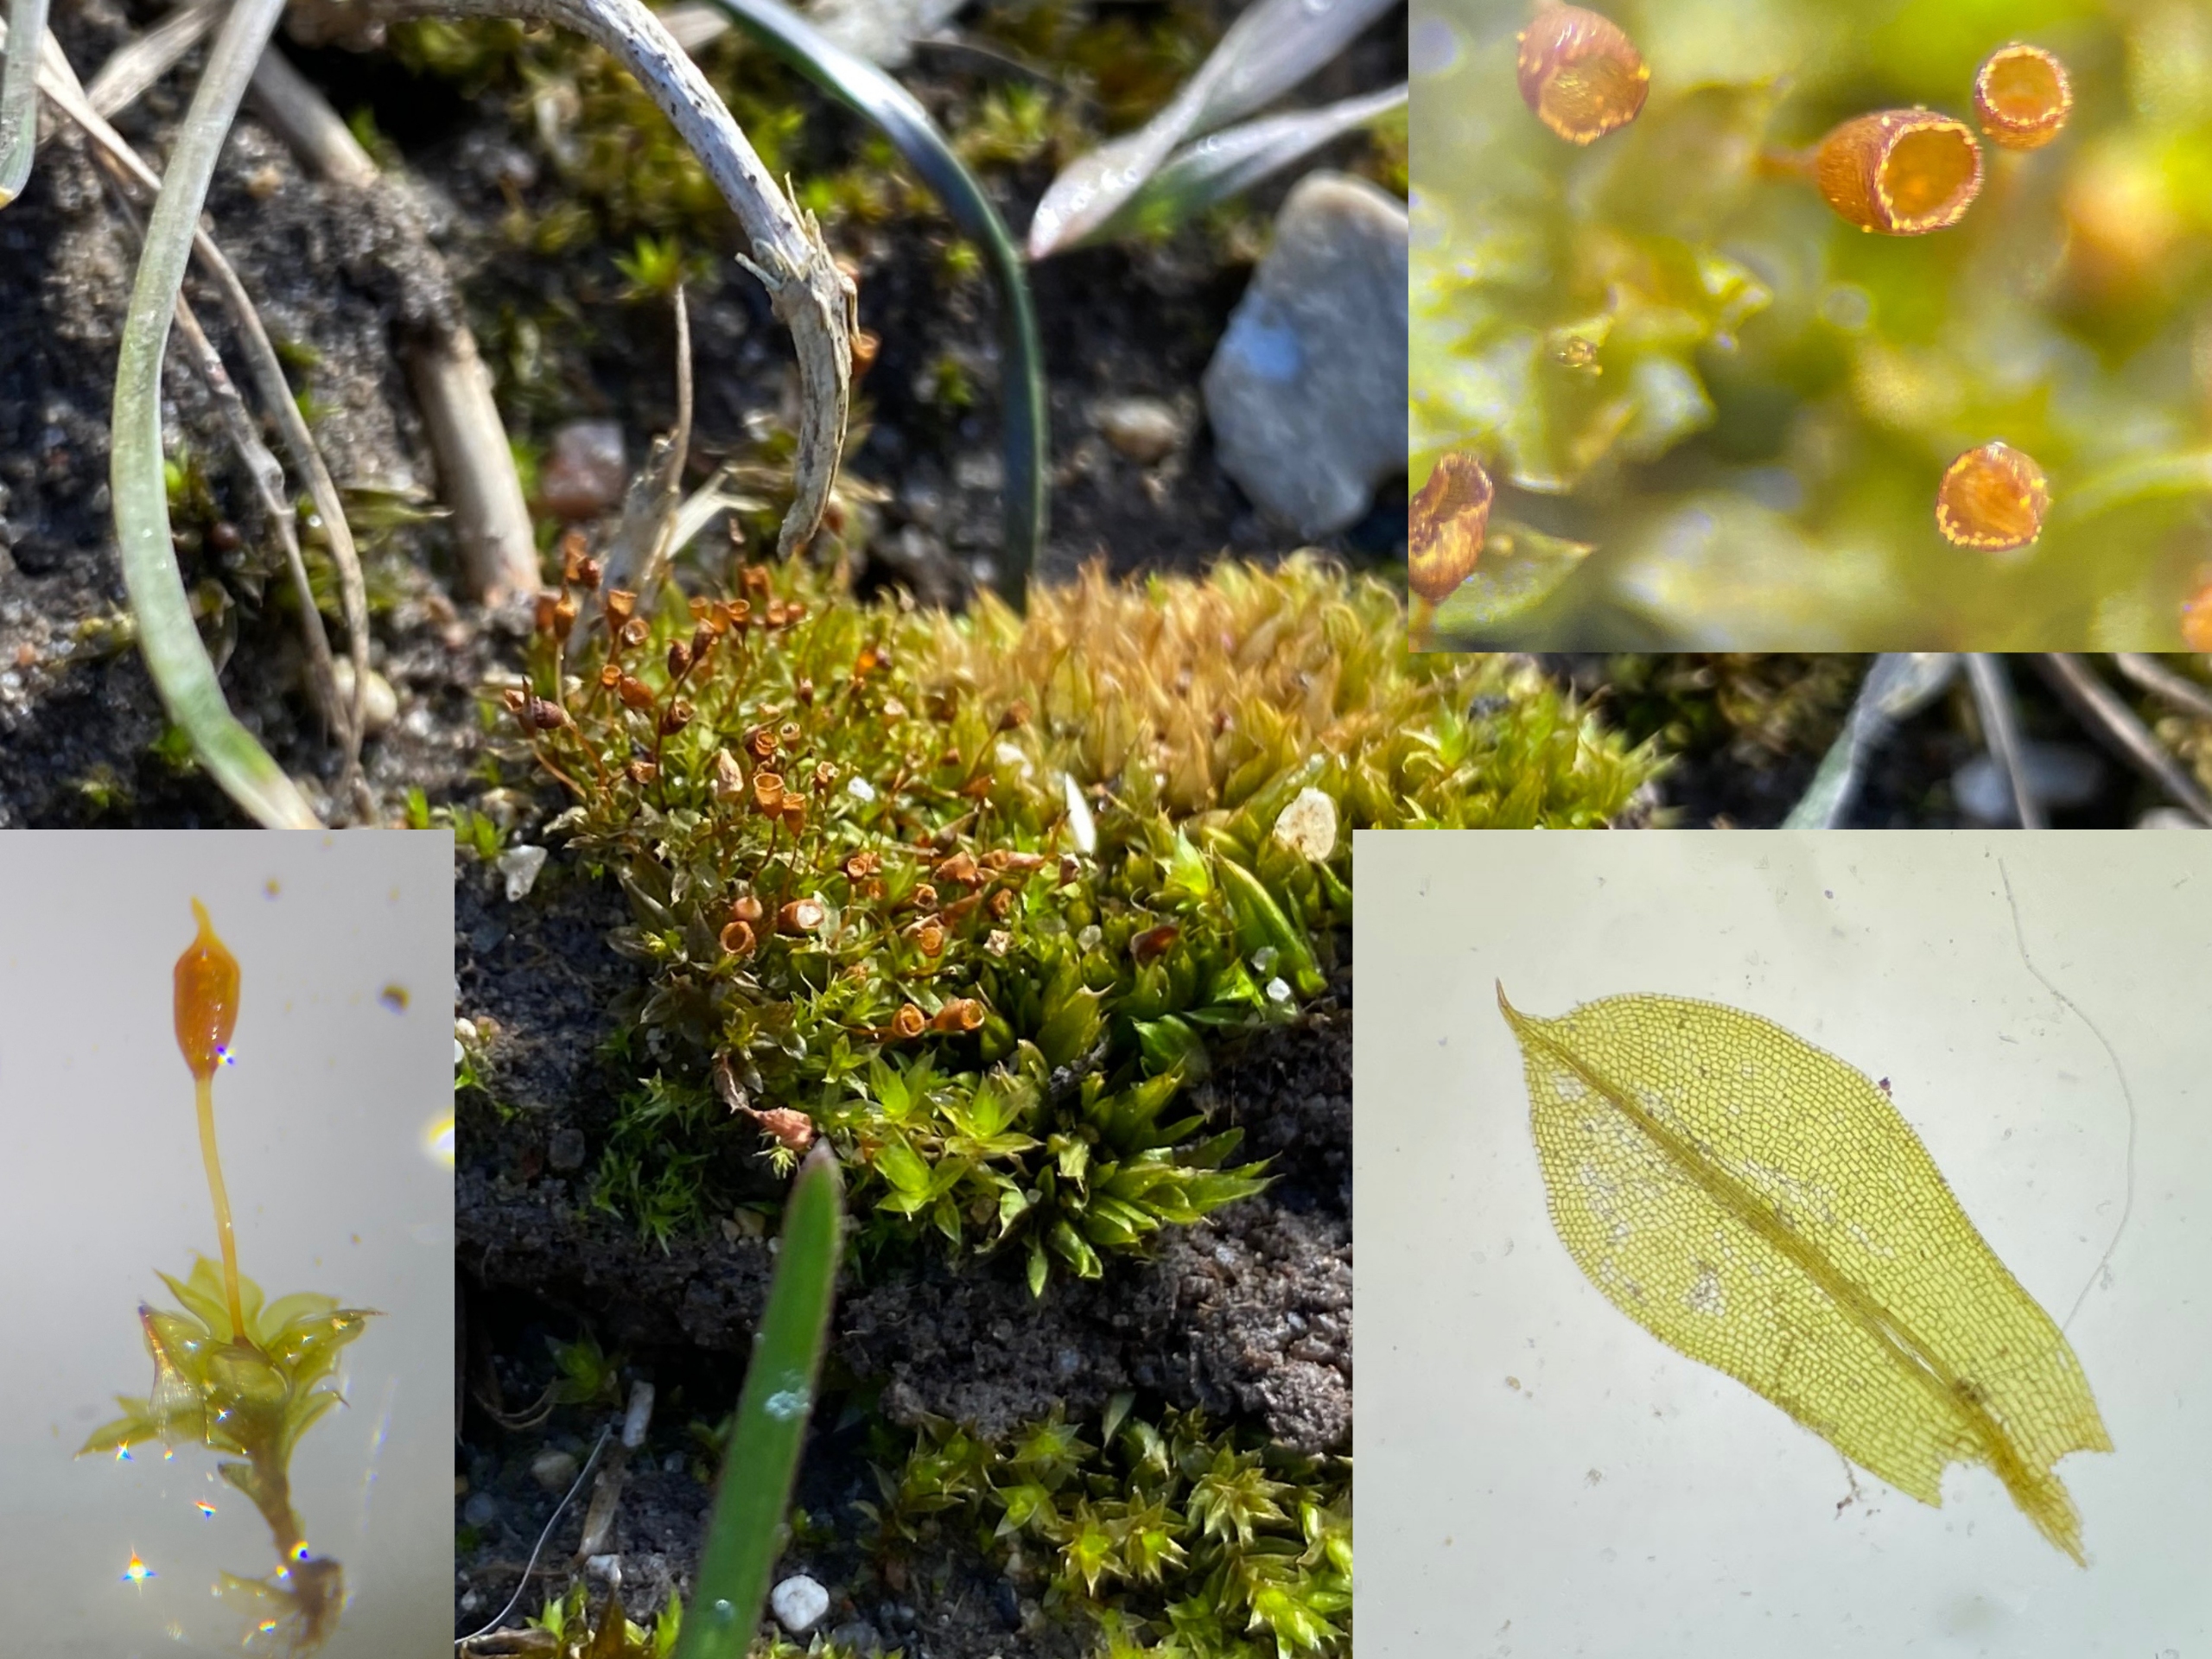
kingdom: Plantae
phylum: Bryophyta
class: Bryopsida
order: Pottiales
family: Pottiaceae
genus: Tortula
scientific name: Tortula truncata
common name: Vidmundet bægermos
